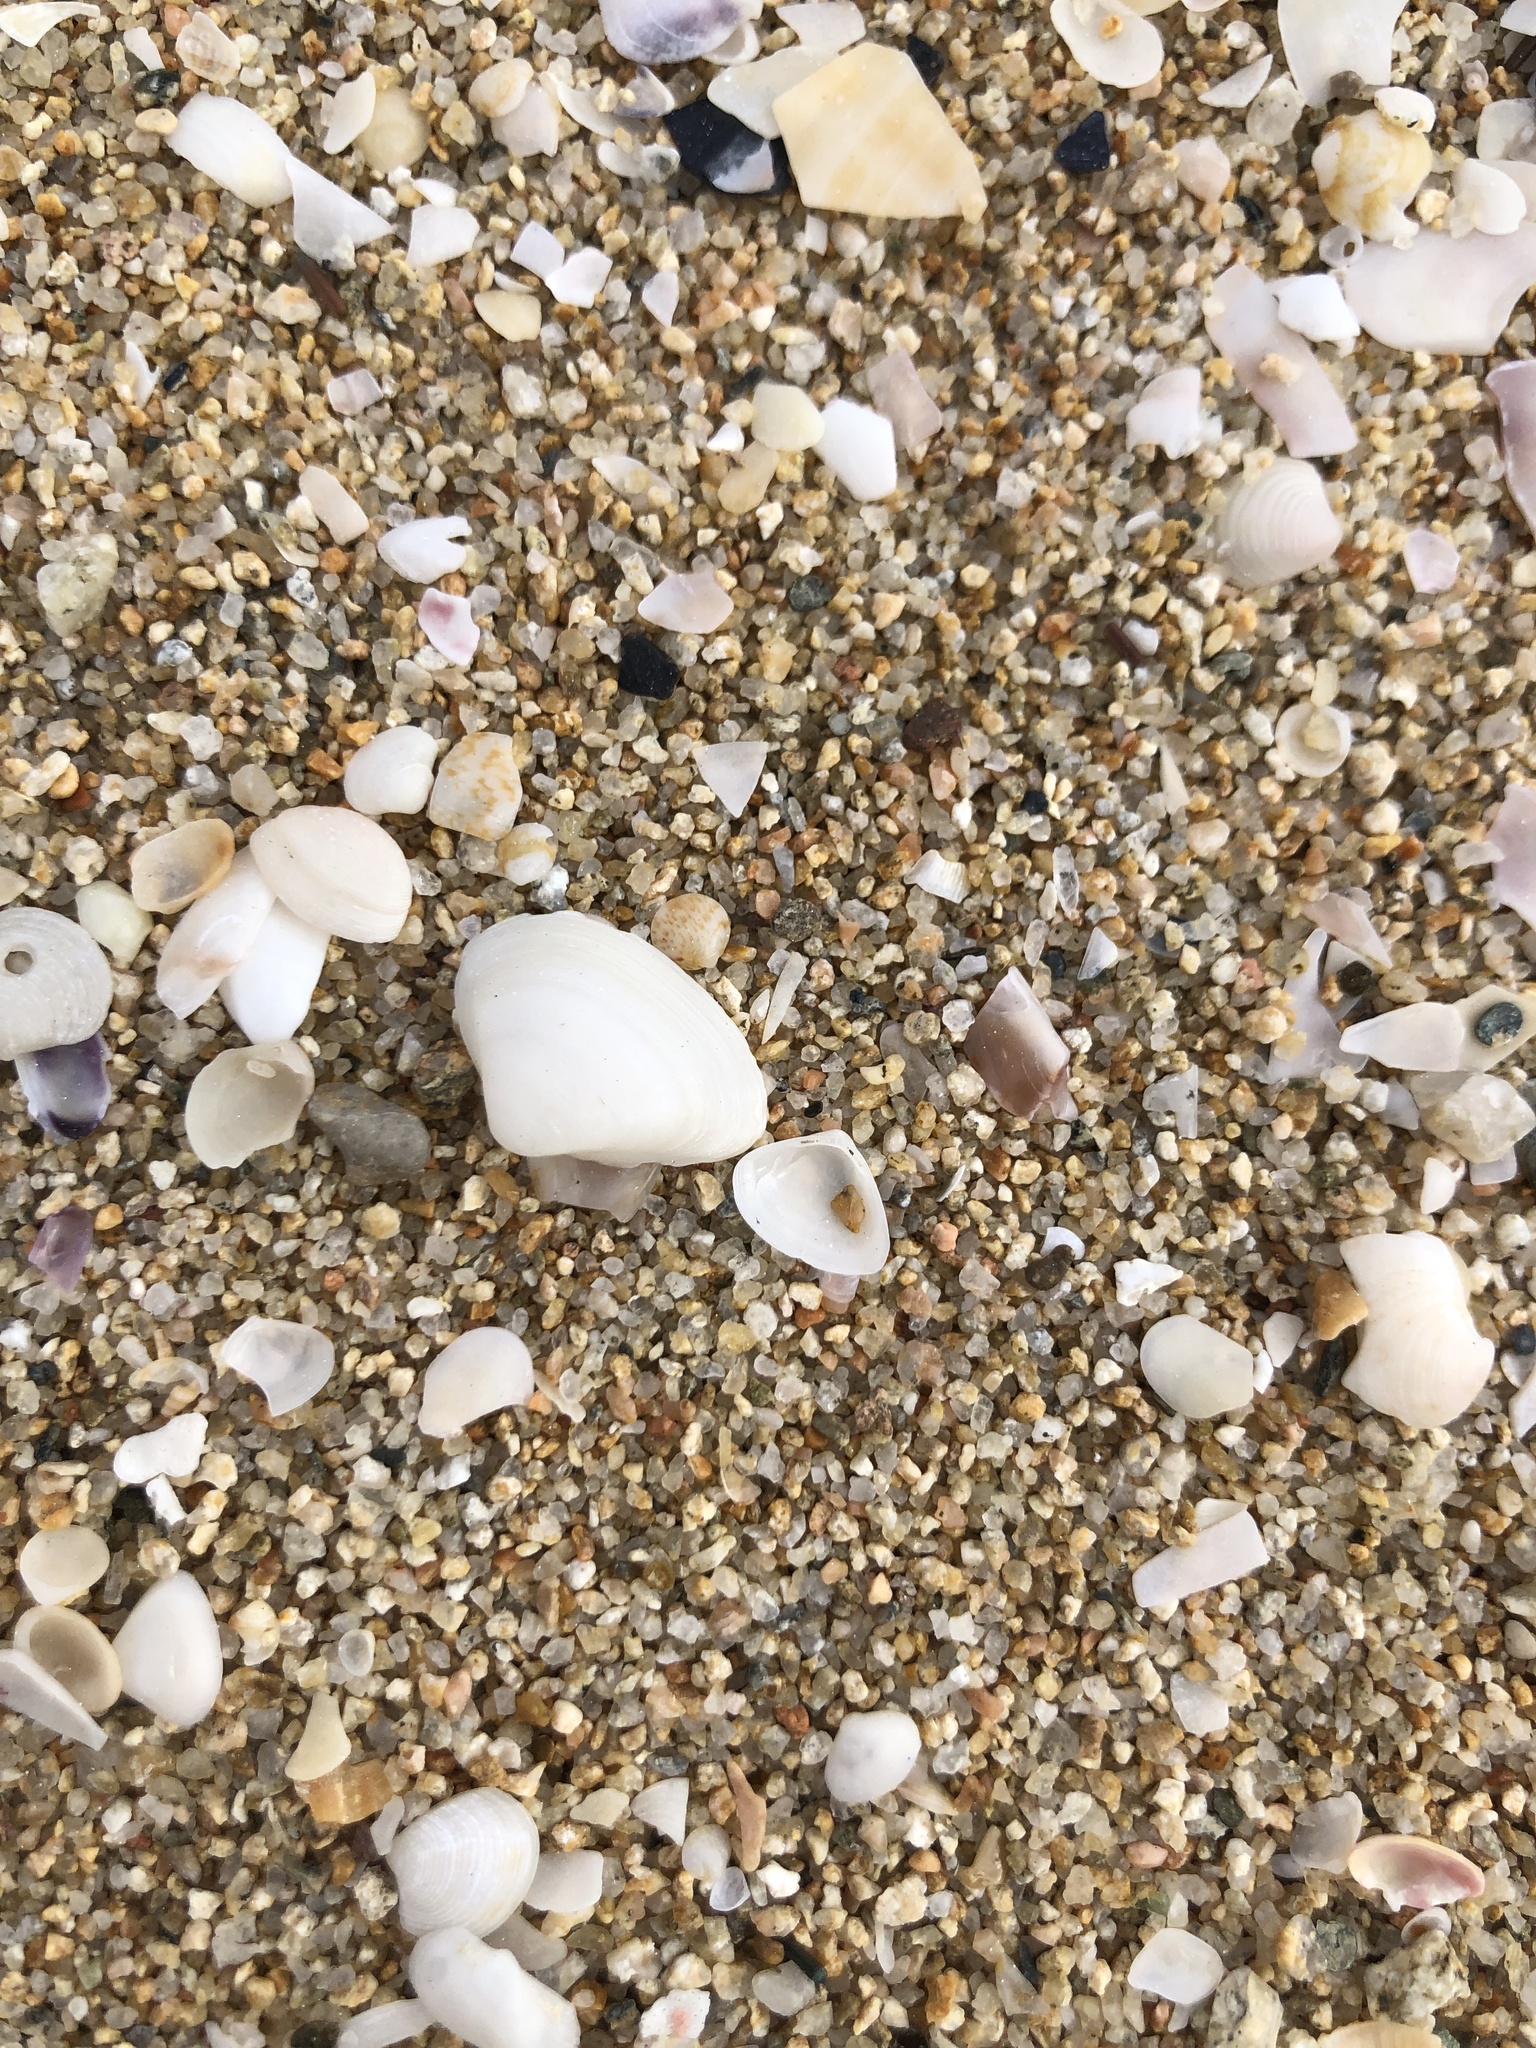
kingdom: Animalia
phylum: Mollusca
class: Bivalvia
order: Venerida
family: Mactridae
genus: Spisula
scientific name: Spisula subtruncata
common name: Cut trough shell
